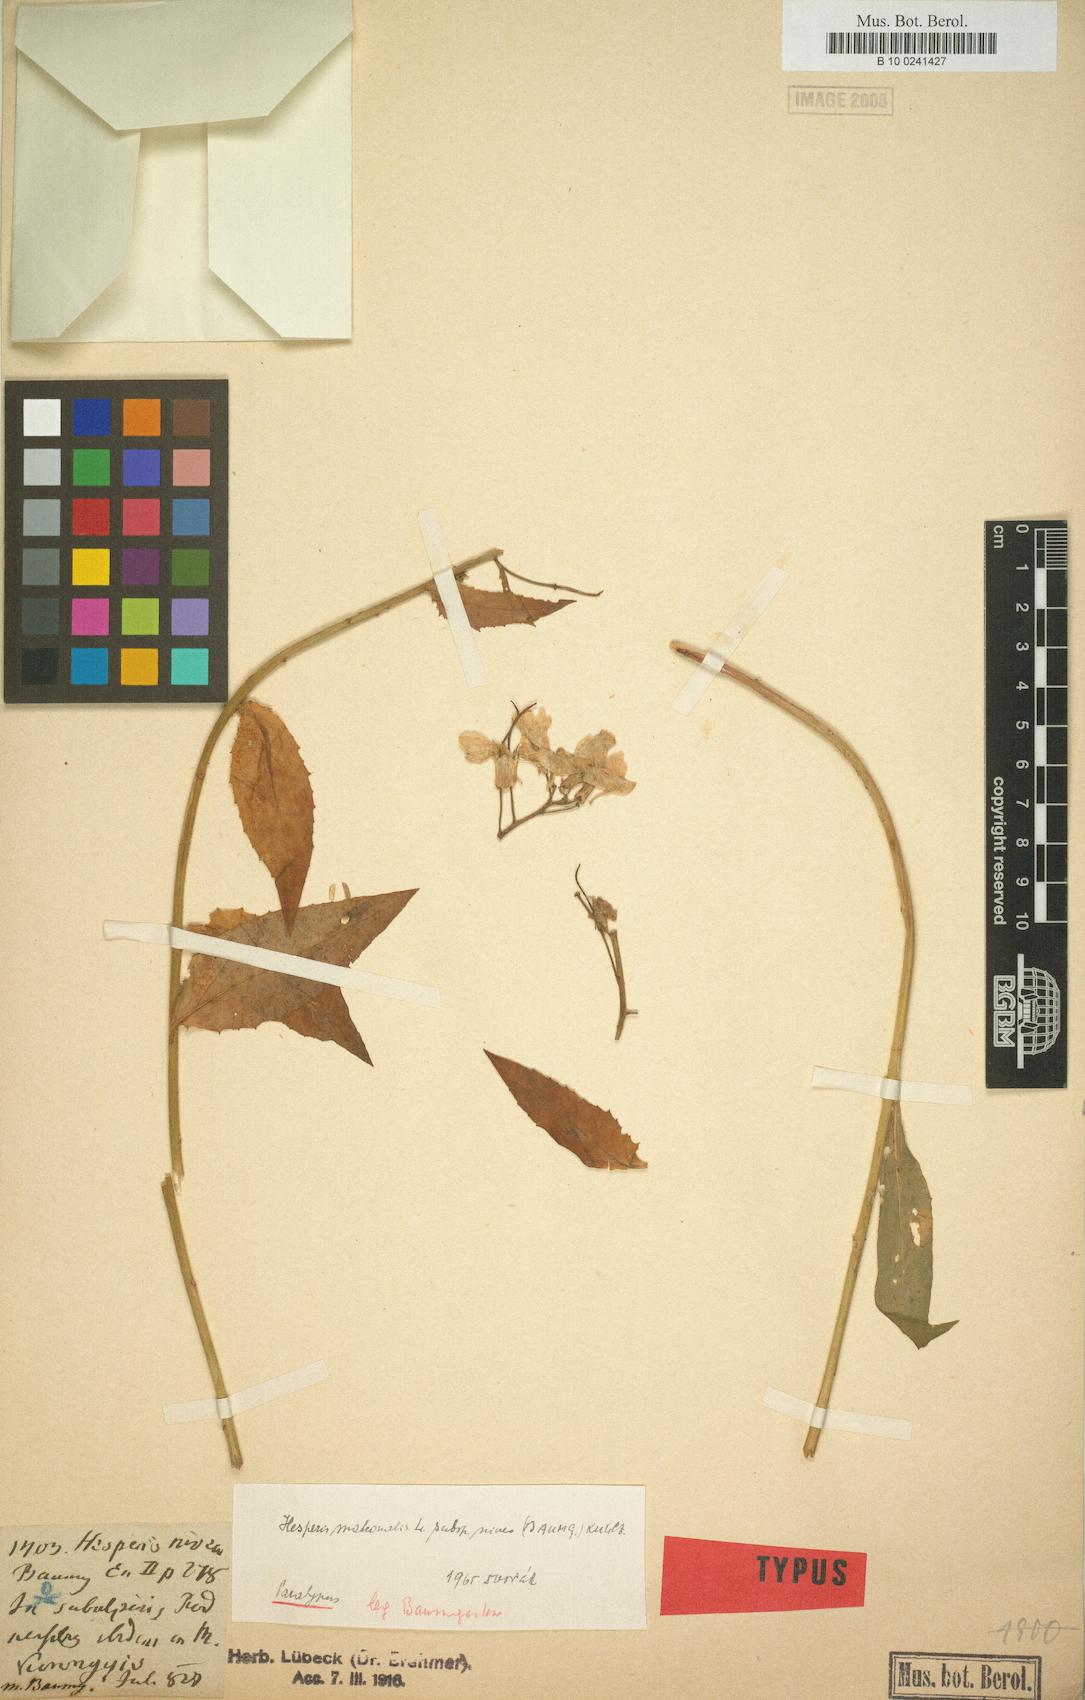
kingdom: Plantae
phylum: Tracheophyta
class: Magnoliopsida
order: Brassicales
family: Brassicaceae
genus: Hesperis
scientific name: Hesperis matronalis
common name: Dame's-violet
